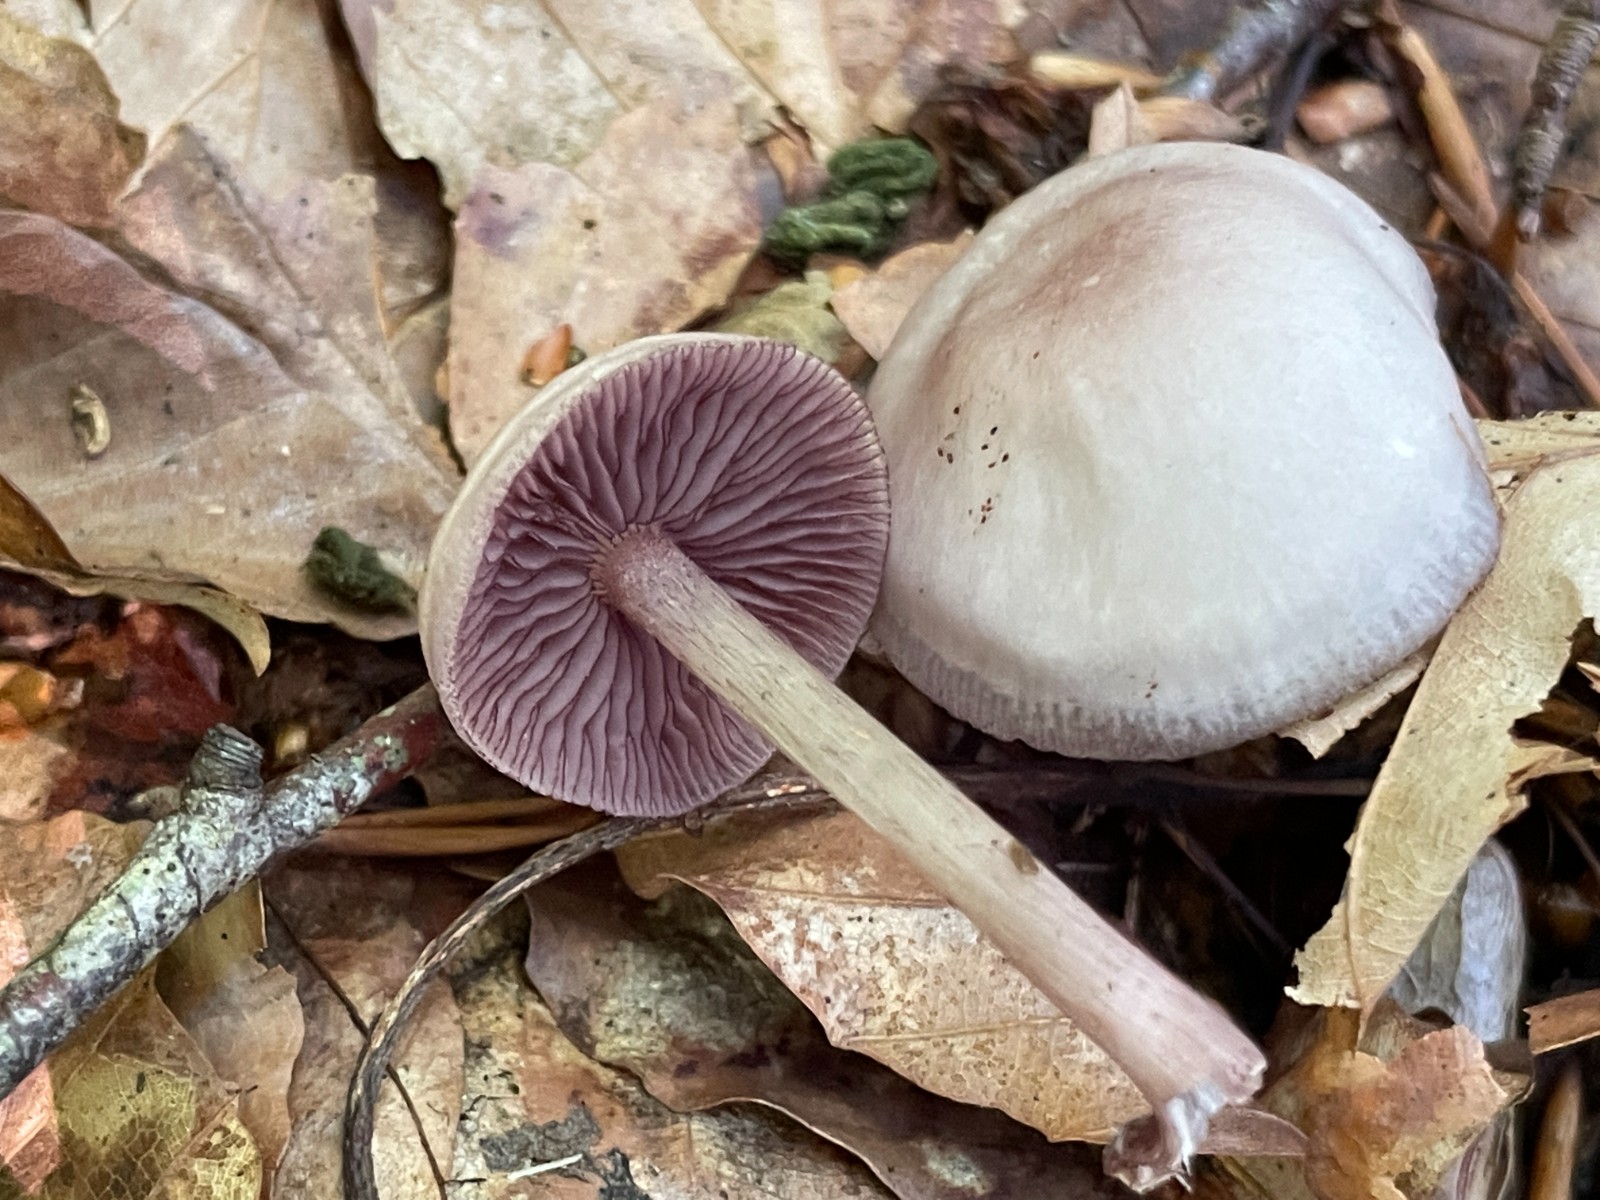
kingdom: Fungi
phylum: Basidiomycota
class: Agaricomycetes
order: Agaricales
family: Mycenaceae
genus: Mycena
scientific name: Mycena pelianthina
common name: mørkbladet huesvamp
